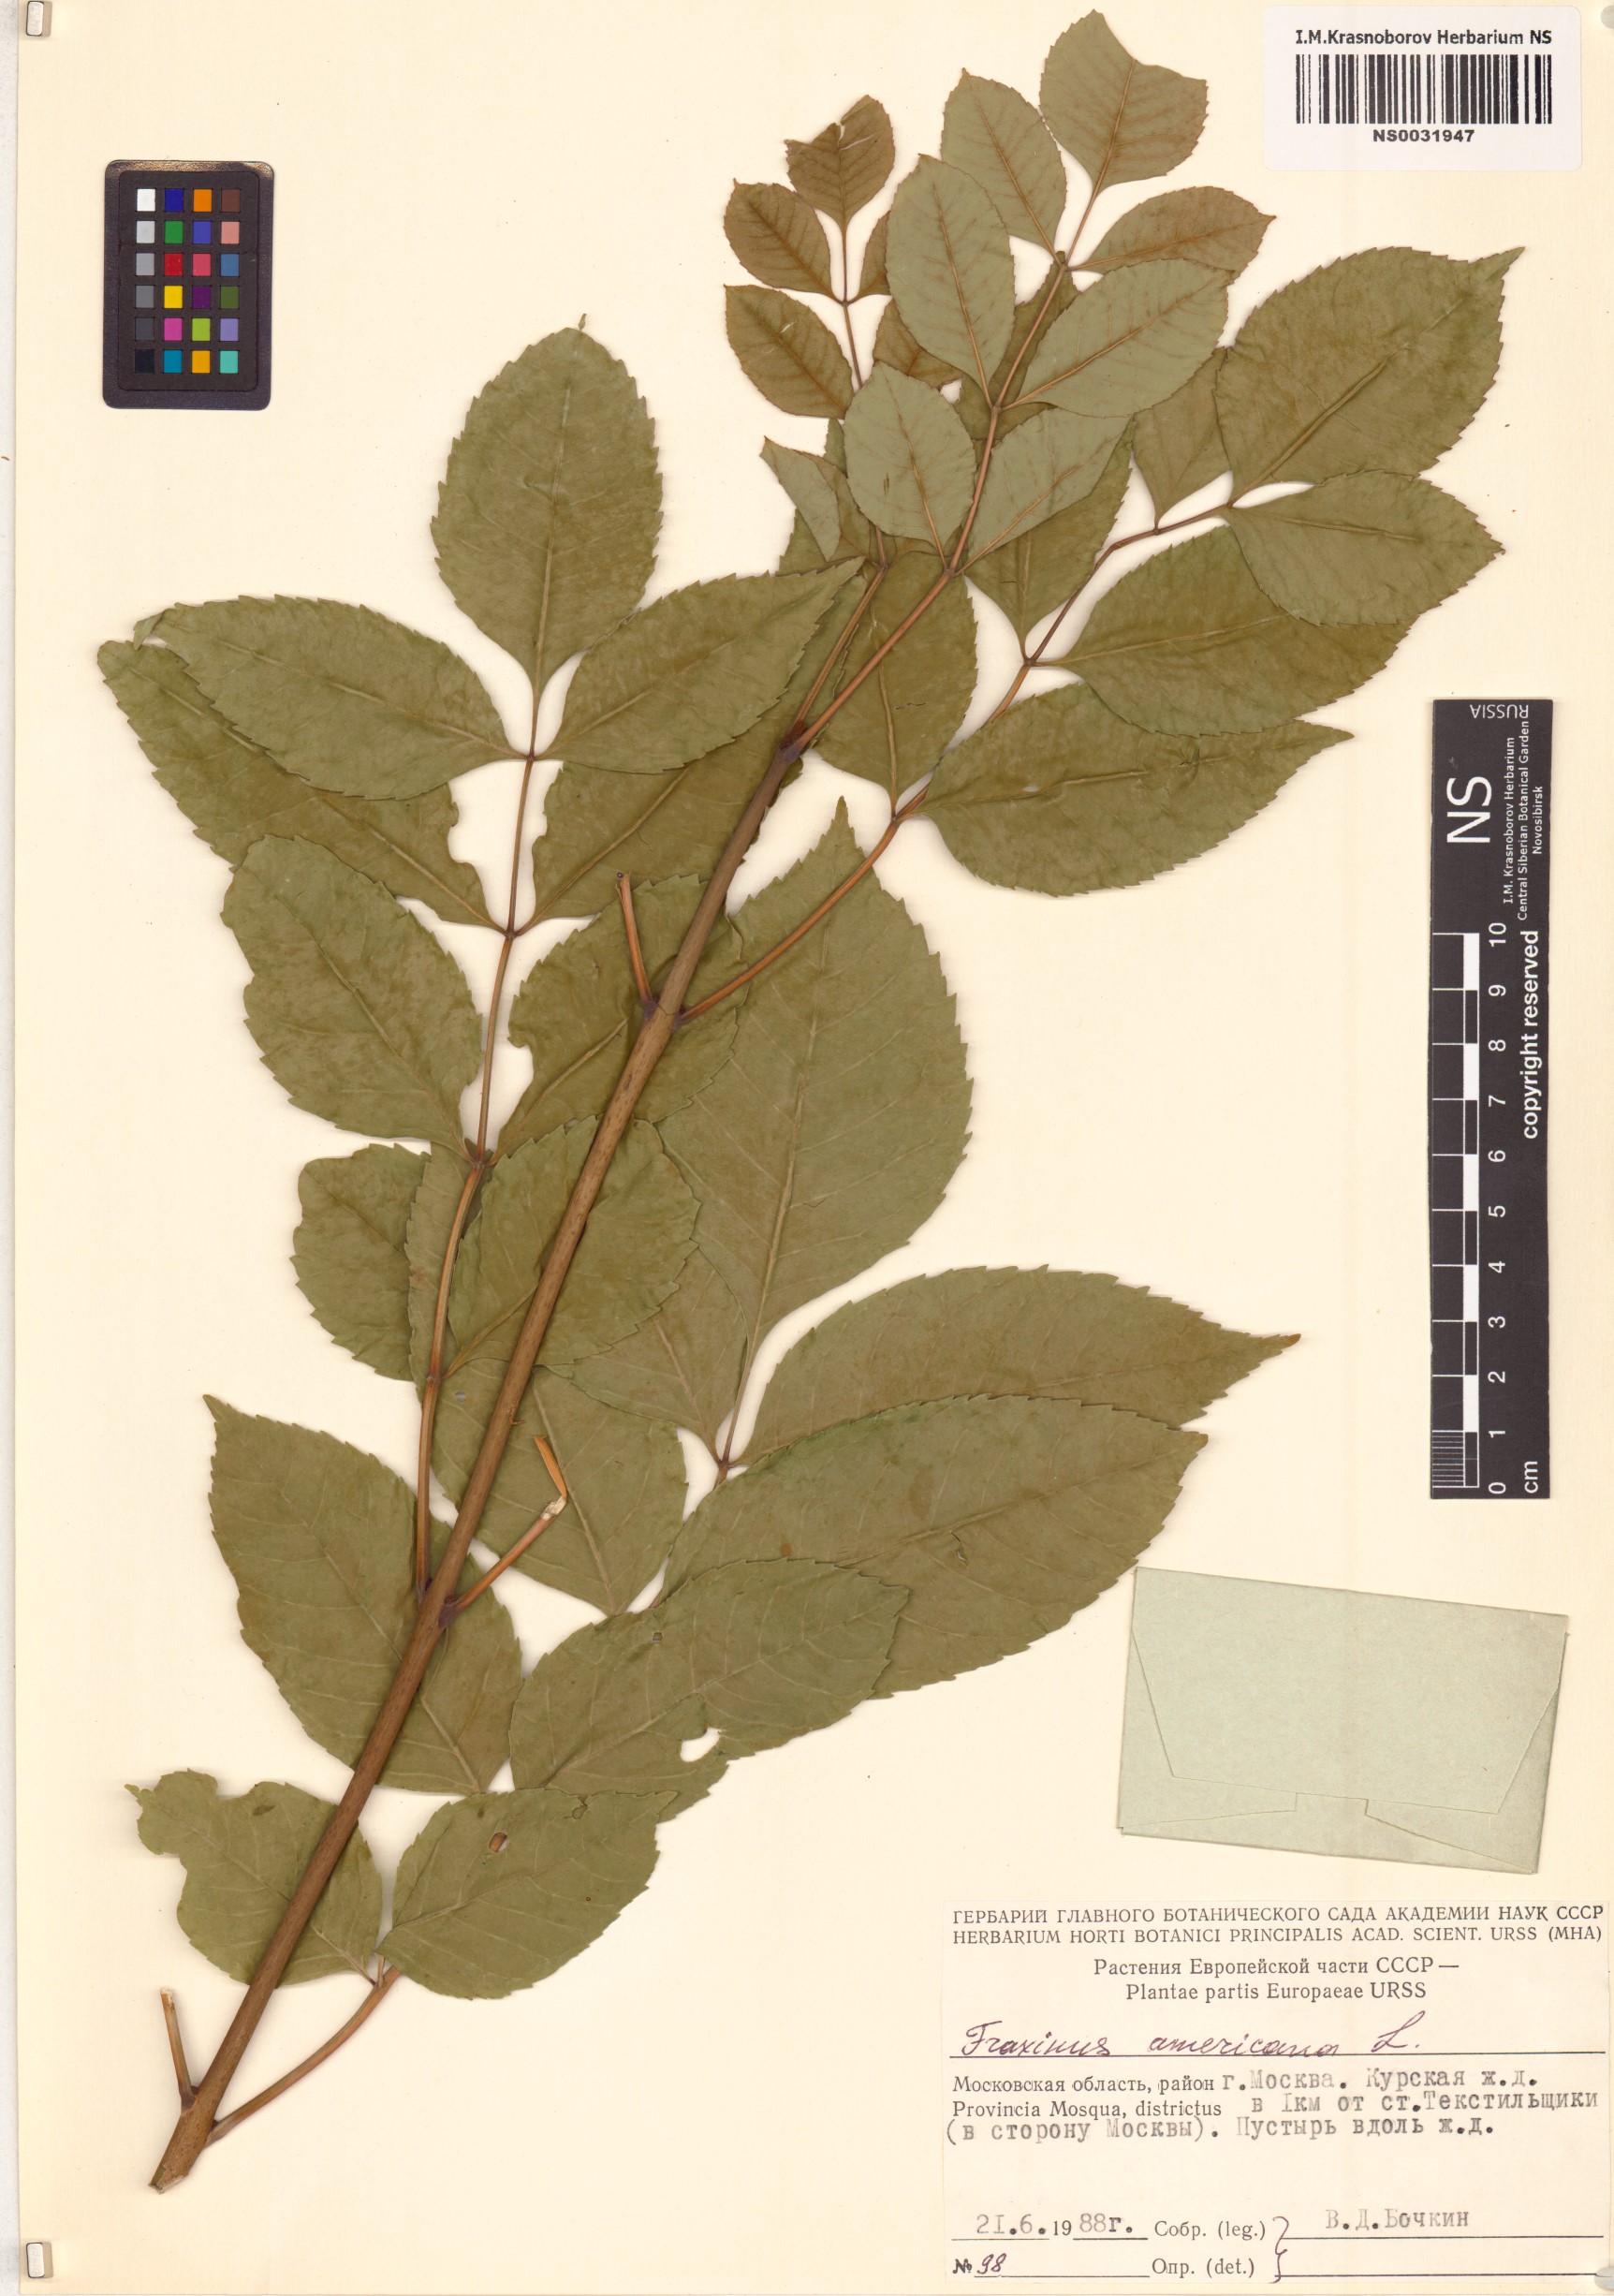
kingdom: Plantae
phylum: Tracheophyta
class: Magnoliopsida
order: Lamiales
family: Oleaceae
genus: Fraxinus
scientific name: Fraxinus americana
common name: White ash
